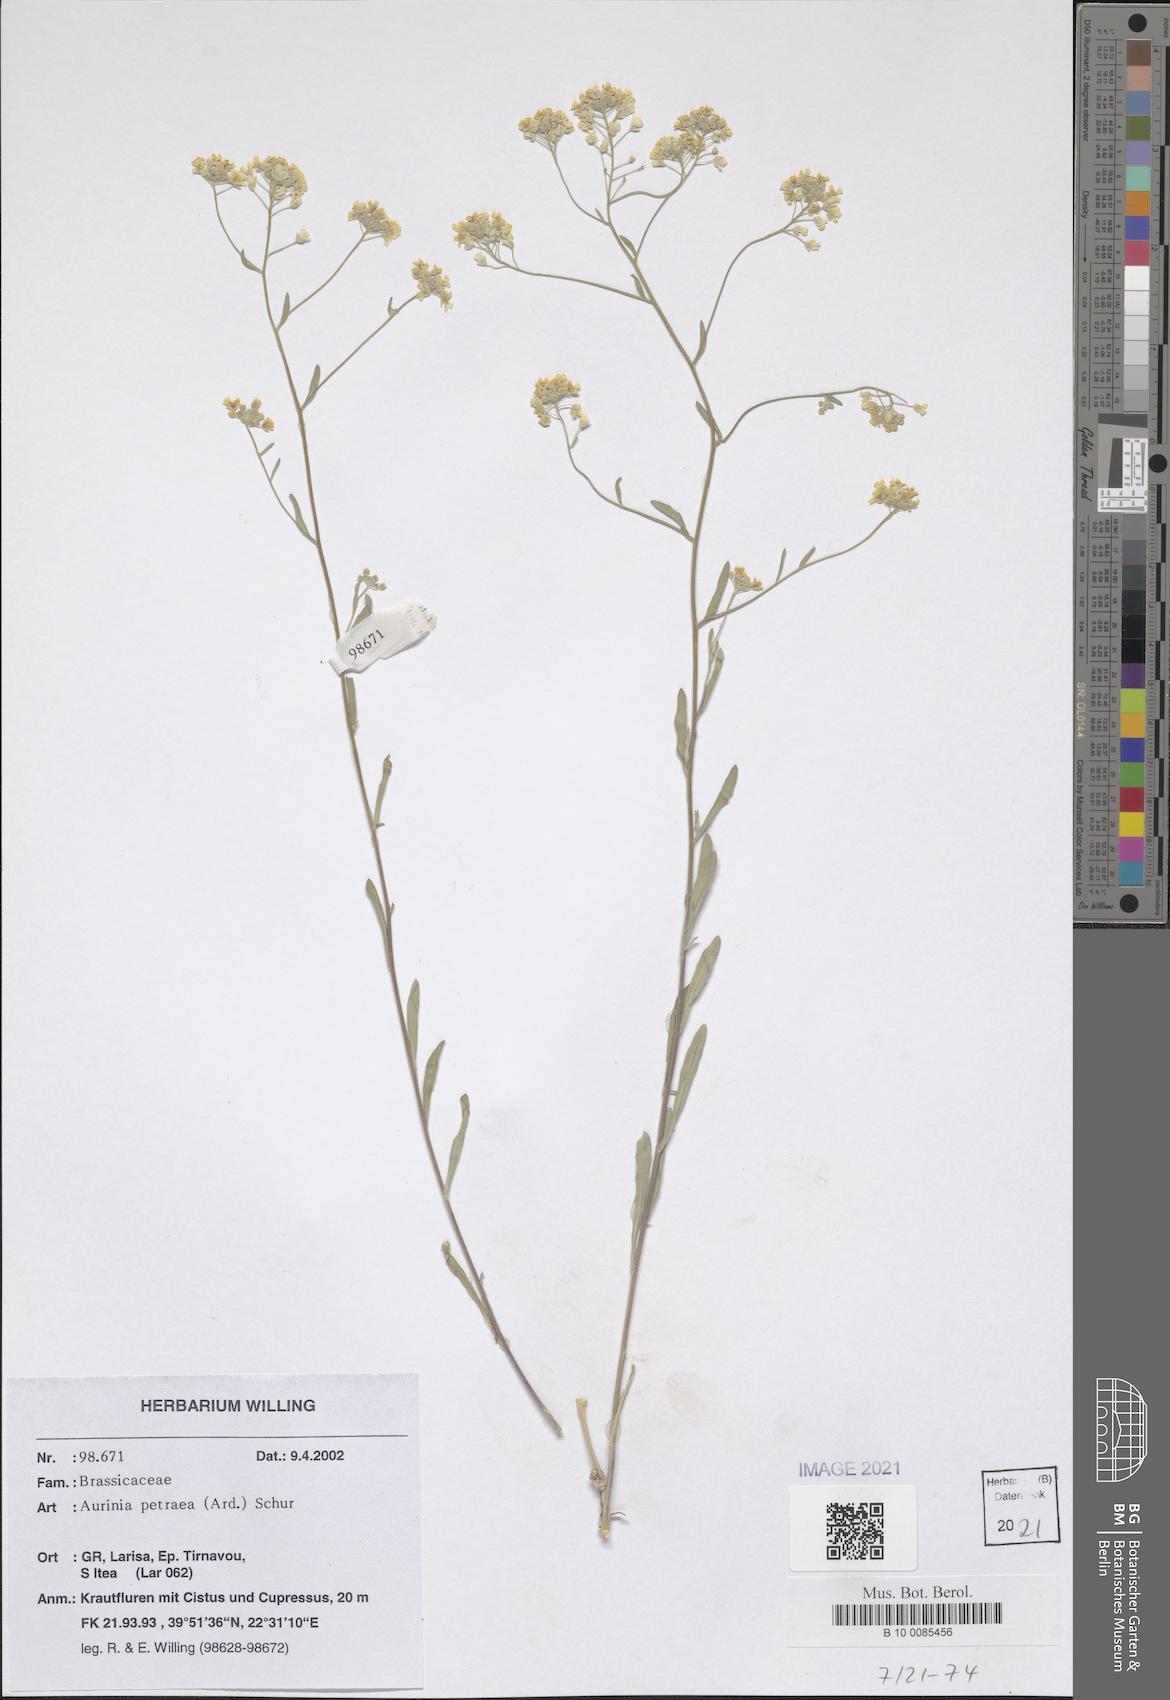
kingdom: Plantae
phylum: Tracheophyta
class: Magnoliopsida
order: Brassicales
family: Brassicaceae
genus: Aurinia
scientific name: Aurinia petraea
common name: Goldentuft
